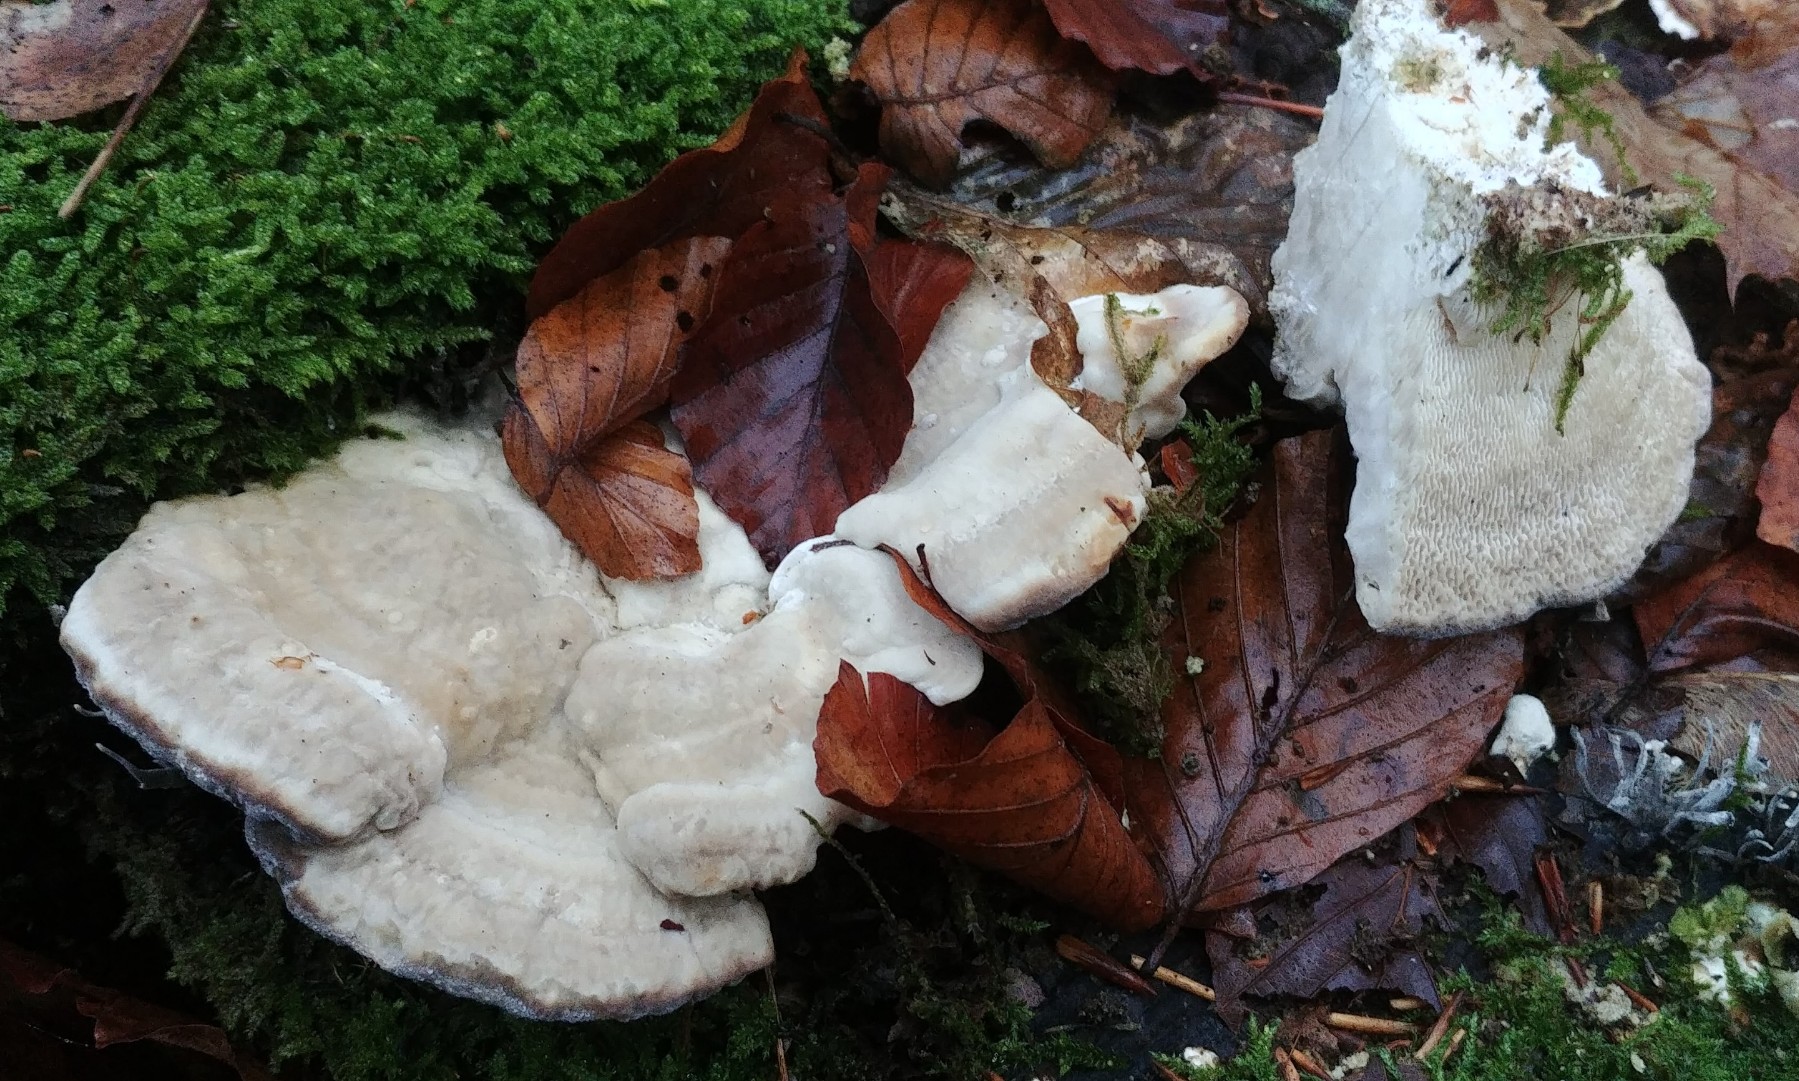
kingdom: Fungi
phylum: Basidiomycota
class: Agaricomycetes
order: Polyporales
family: Polyporaceae
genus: Trametes
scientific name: Trametes gibbosa
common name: puklet læderporesvamp
